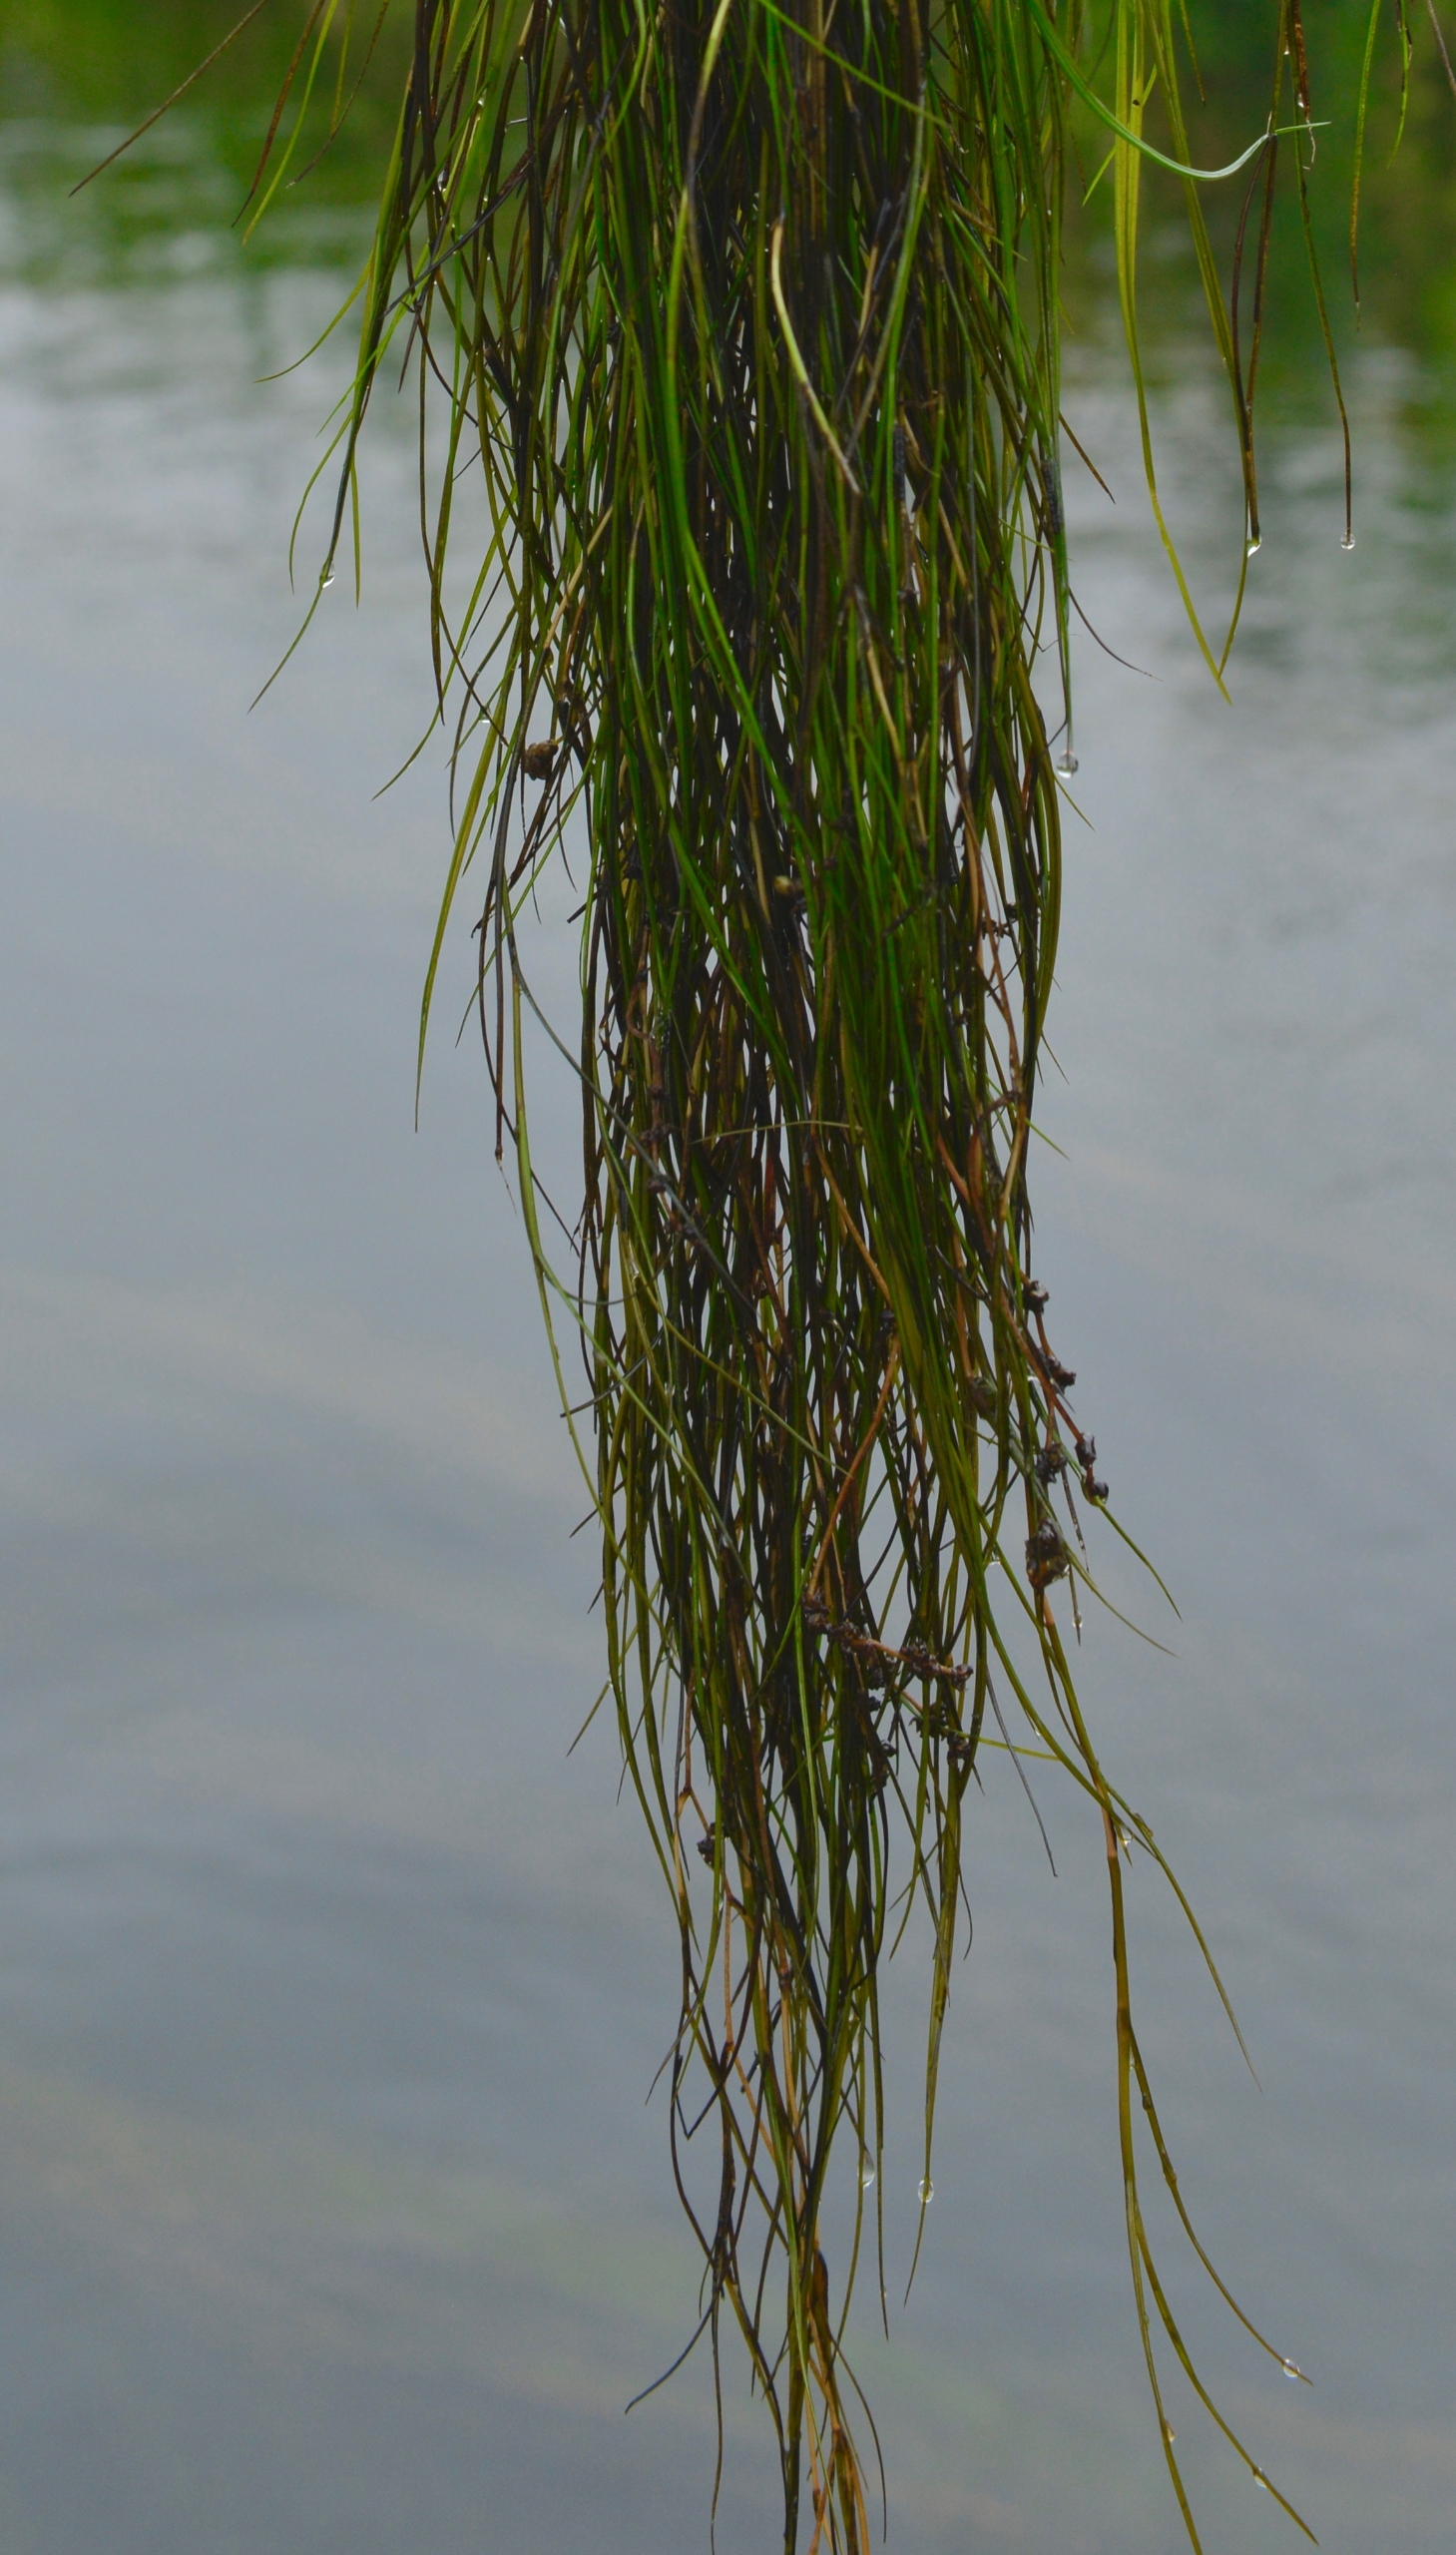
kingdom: Plantae
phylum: Tracheophyta
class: Liliopsida
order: Alismatales
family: Potamogetonaceae
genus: Stuckenia
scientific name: Stuckenia pectinata
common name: Børstebladet vandaks
